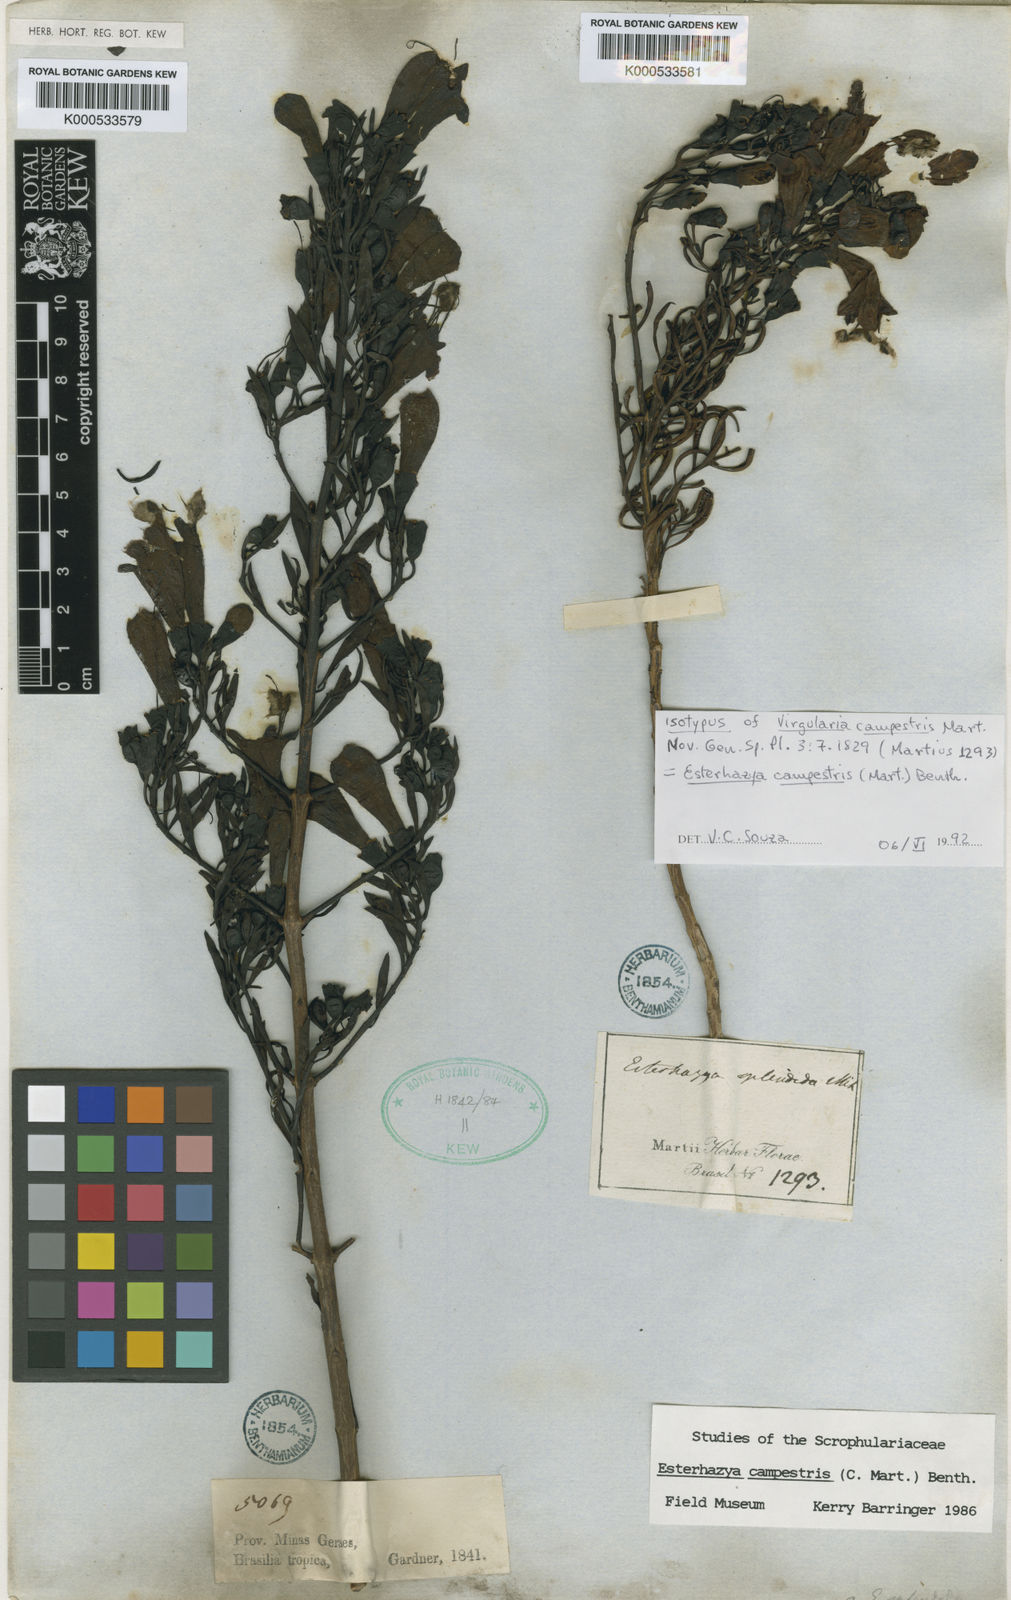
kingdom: Plantae
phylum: Tracheophyta
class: Magnoliopsida
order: Lamiales
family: Orobanchaceae
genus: Esterhazya
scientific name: Esterhazya splendida
